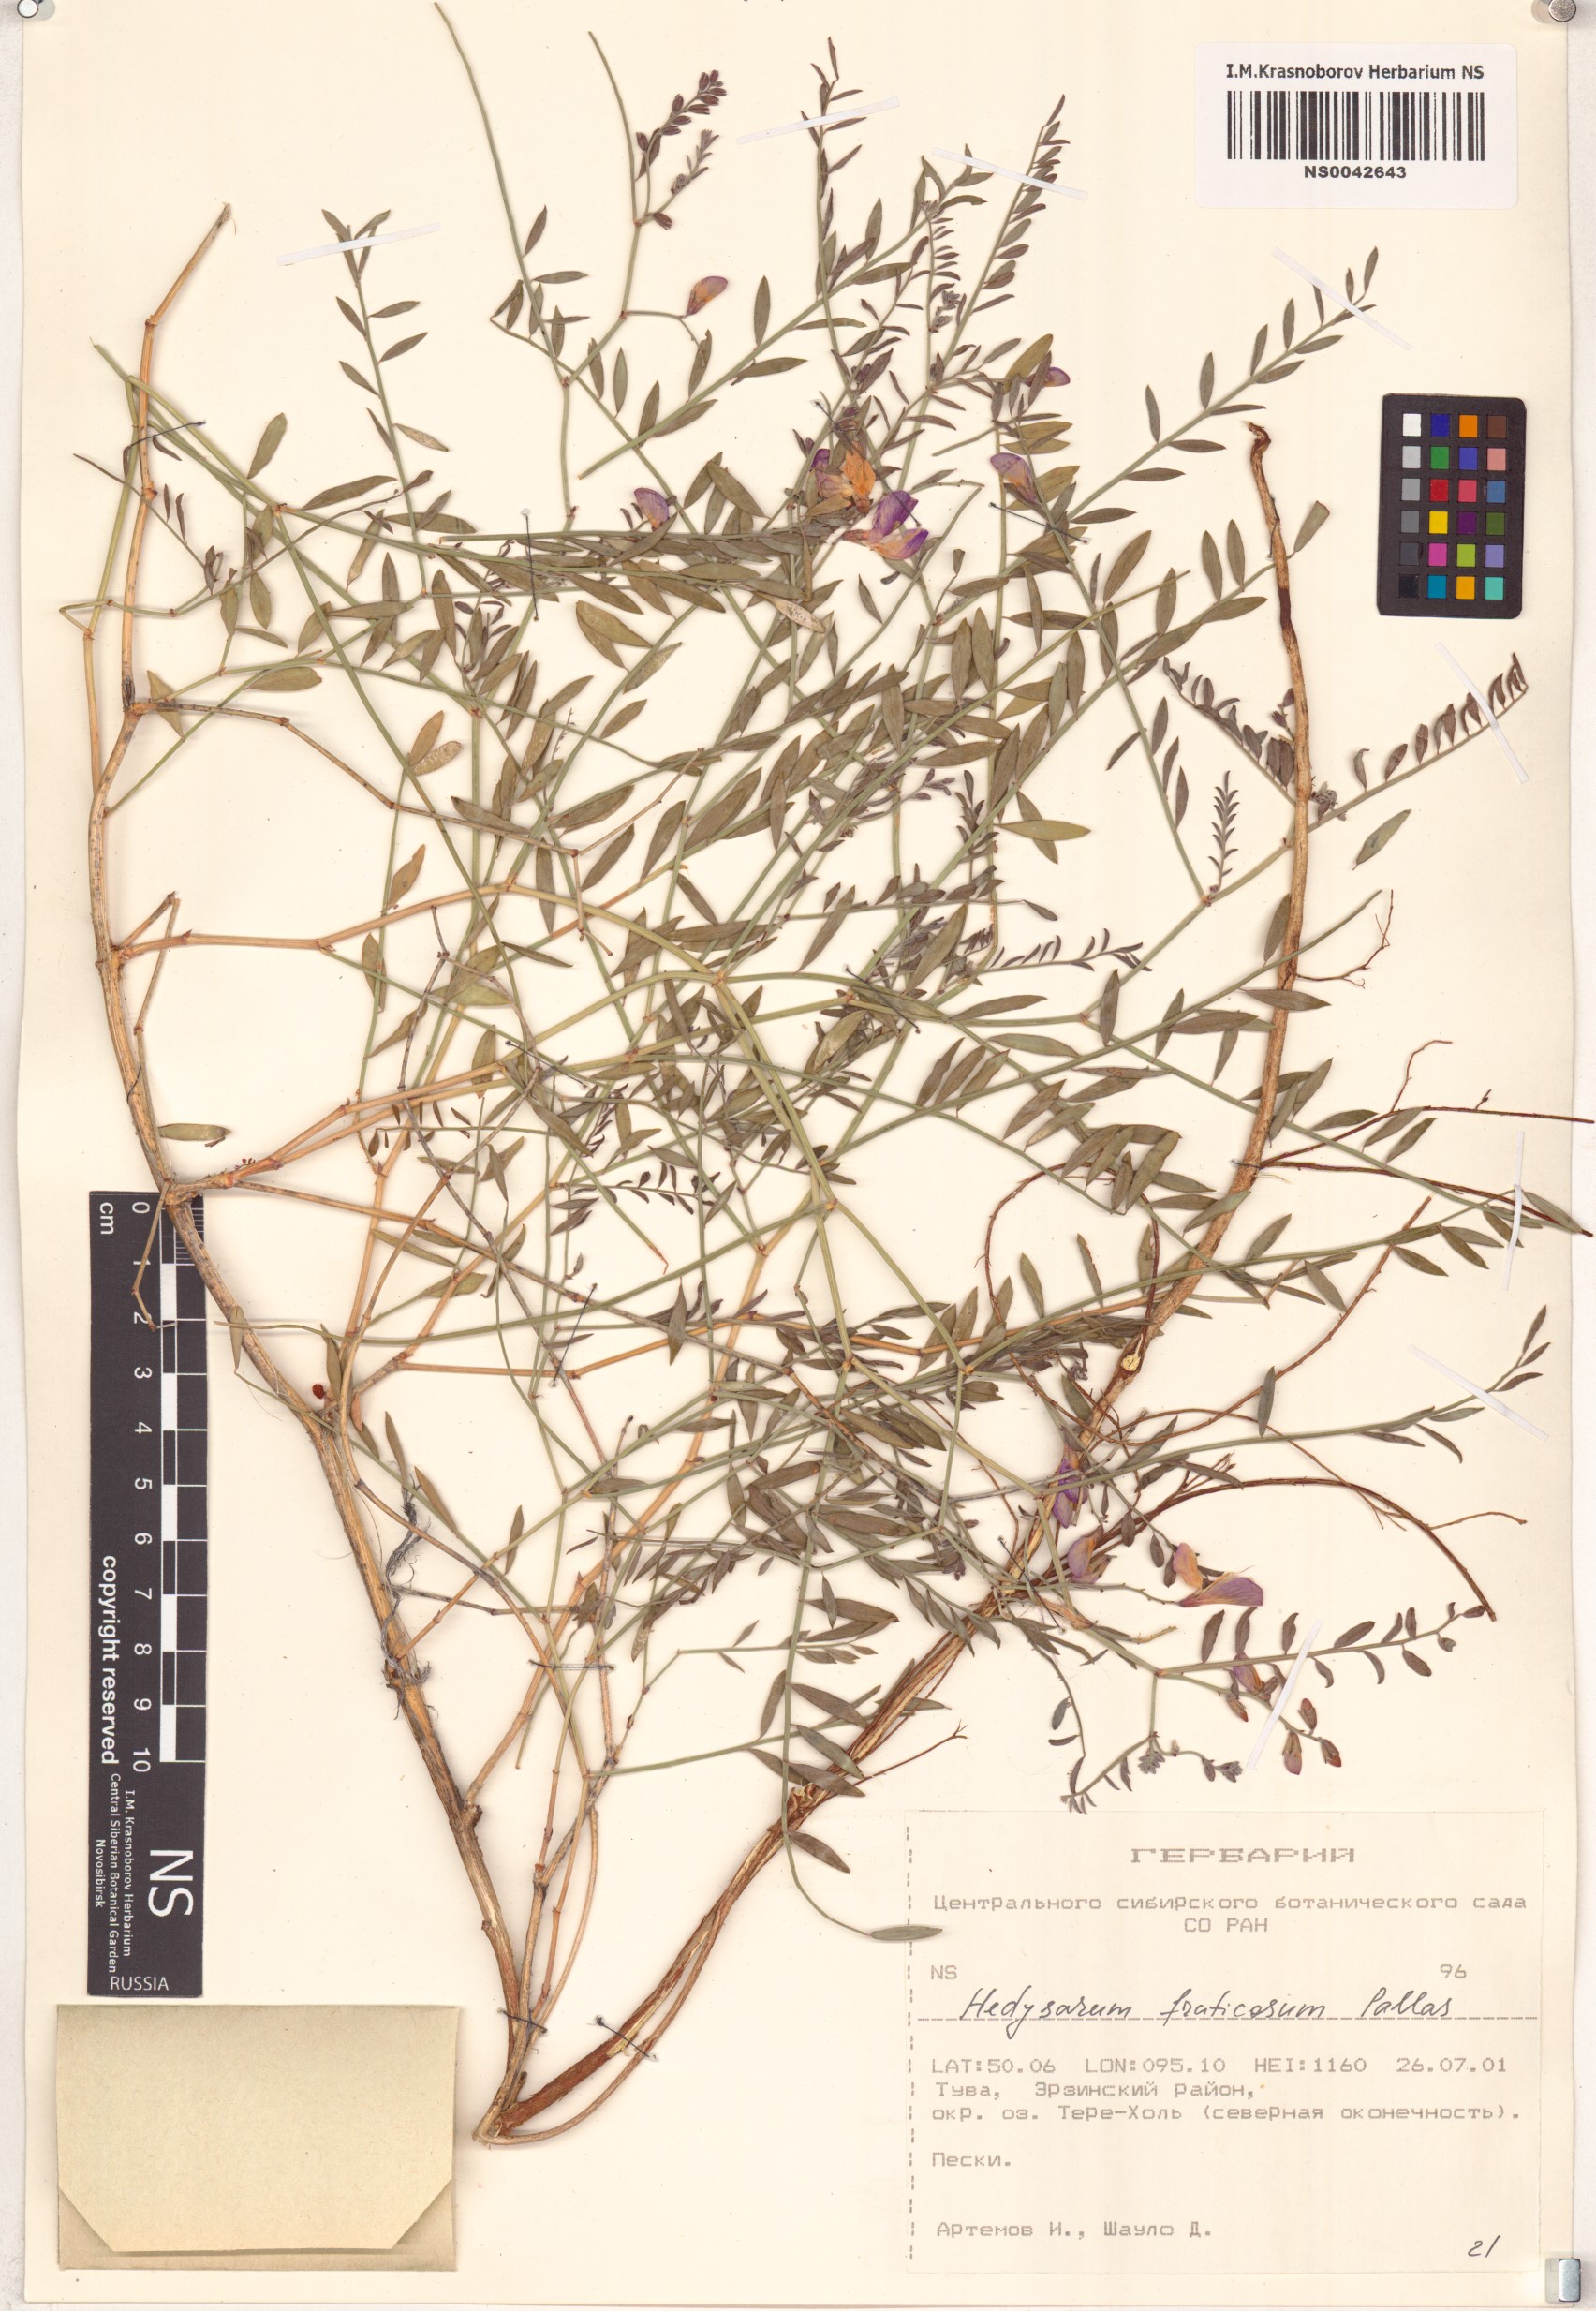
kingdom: Plantae
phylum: Tracheophyta
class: Magnoliopsida
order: Fabales
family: Fabaceae
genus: Corethrodendron
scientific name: Corethrodendron fruticosum
